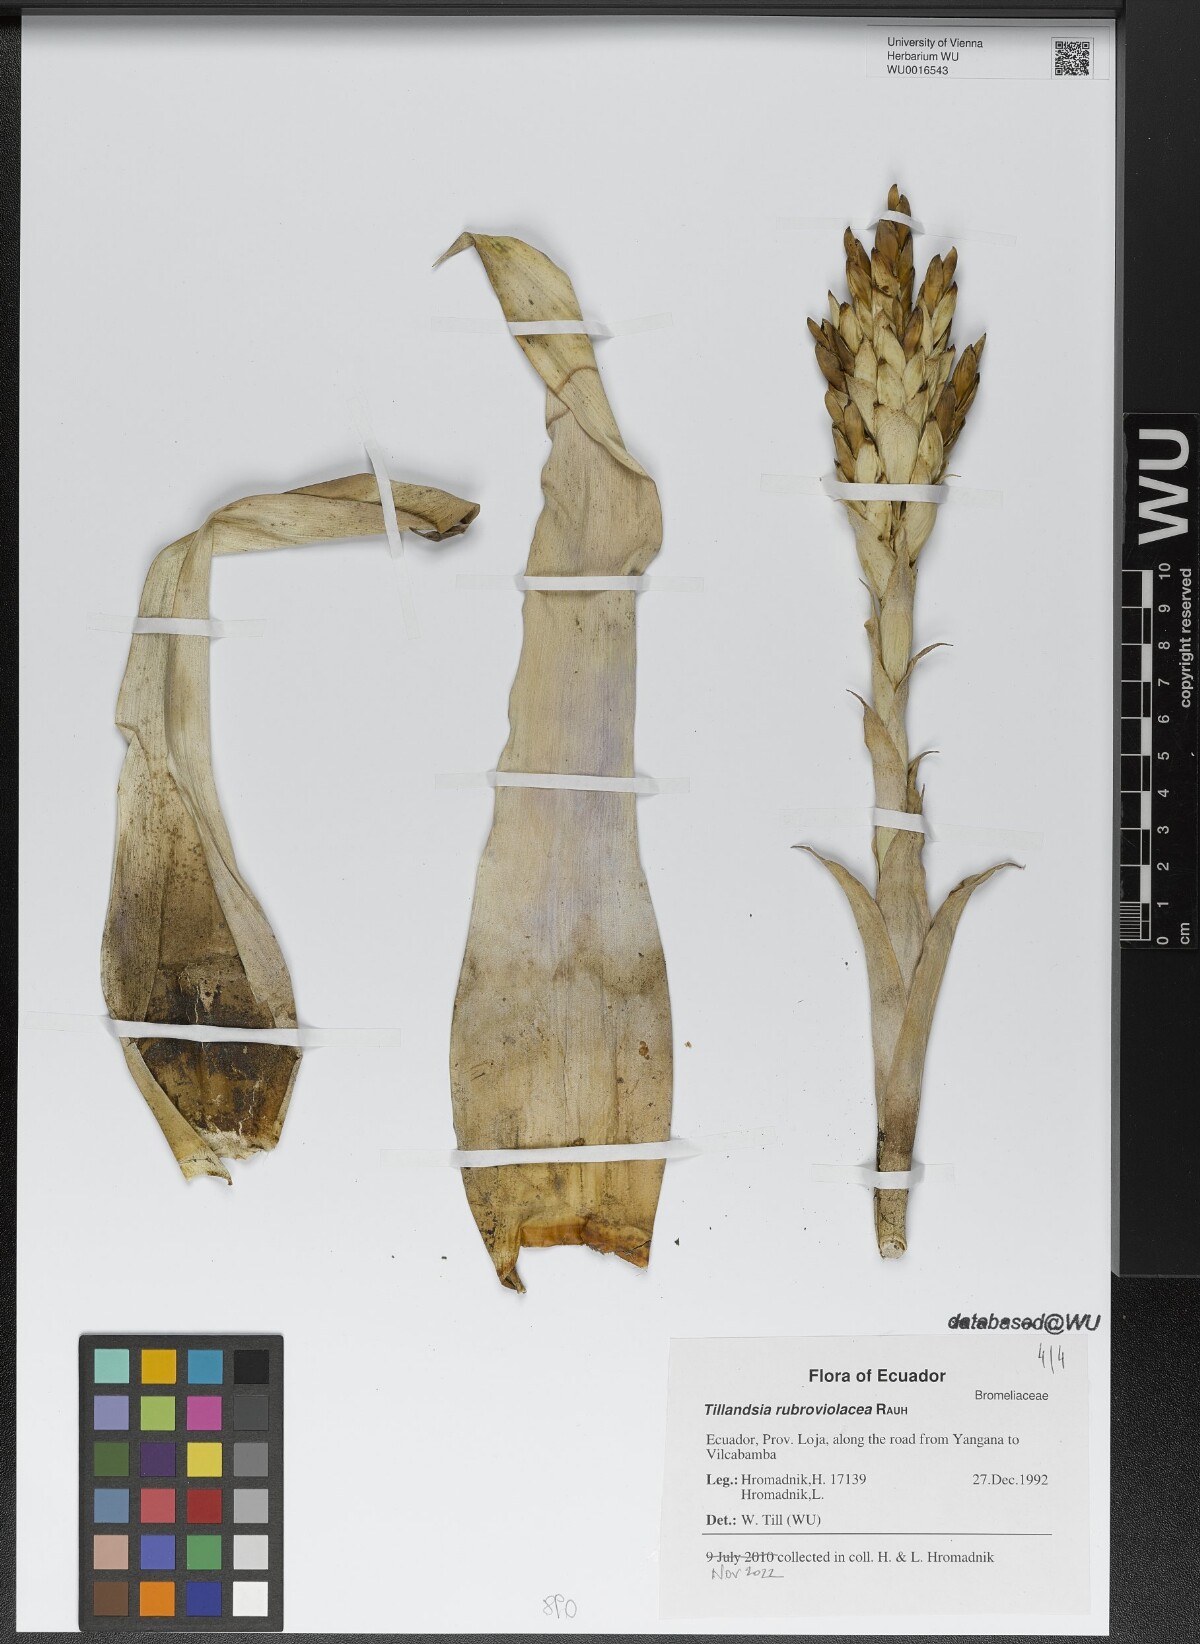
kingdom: Plantae
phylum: Tracheophyta
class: Liliopsida
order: Poales
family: Bromeliaceae
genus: Tillandsia
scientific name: Tillandsia rubroviolacea
